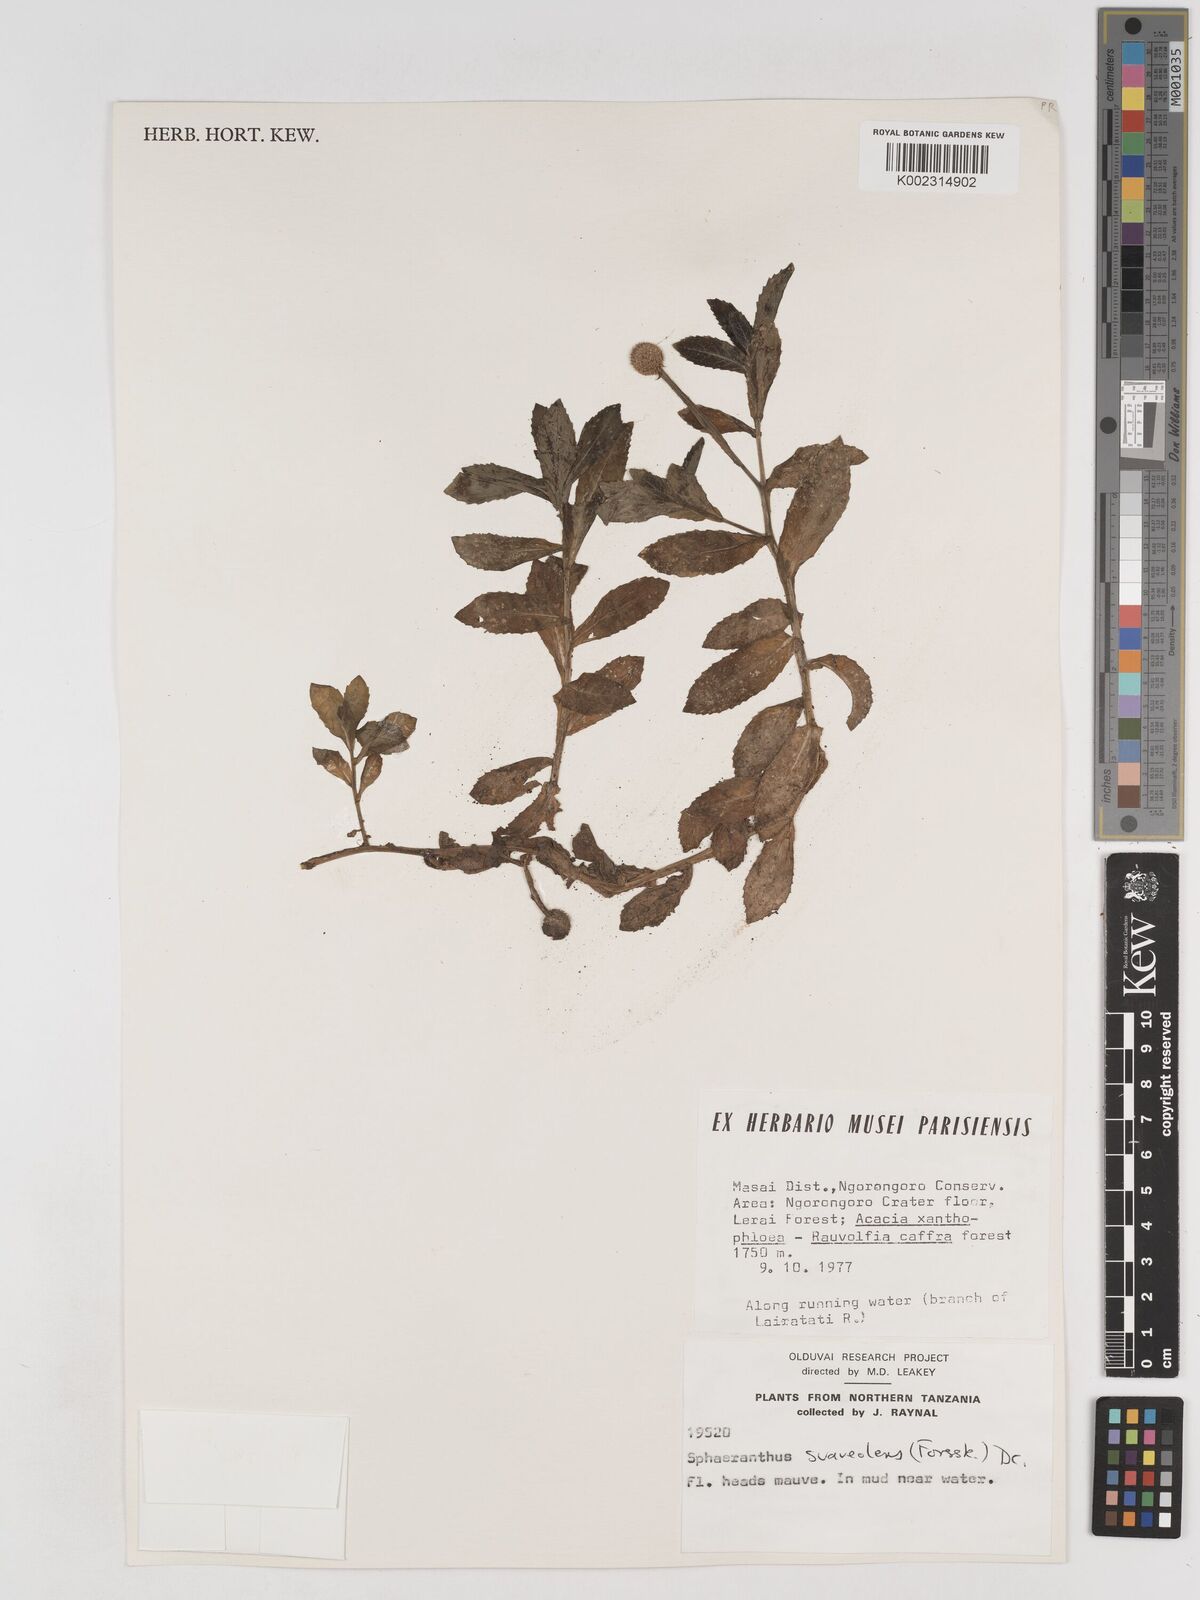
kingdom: Plantae
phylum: Tracheophyta
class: Magnoliopsida
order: Asterales
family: Asteraceae
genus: Sphaeranthus
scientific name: Sphaeranthus suaveolens
